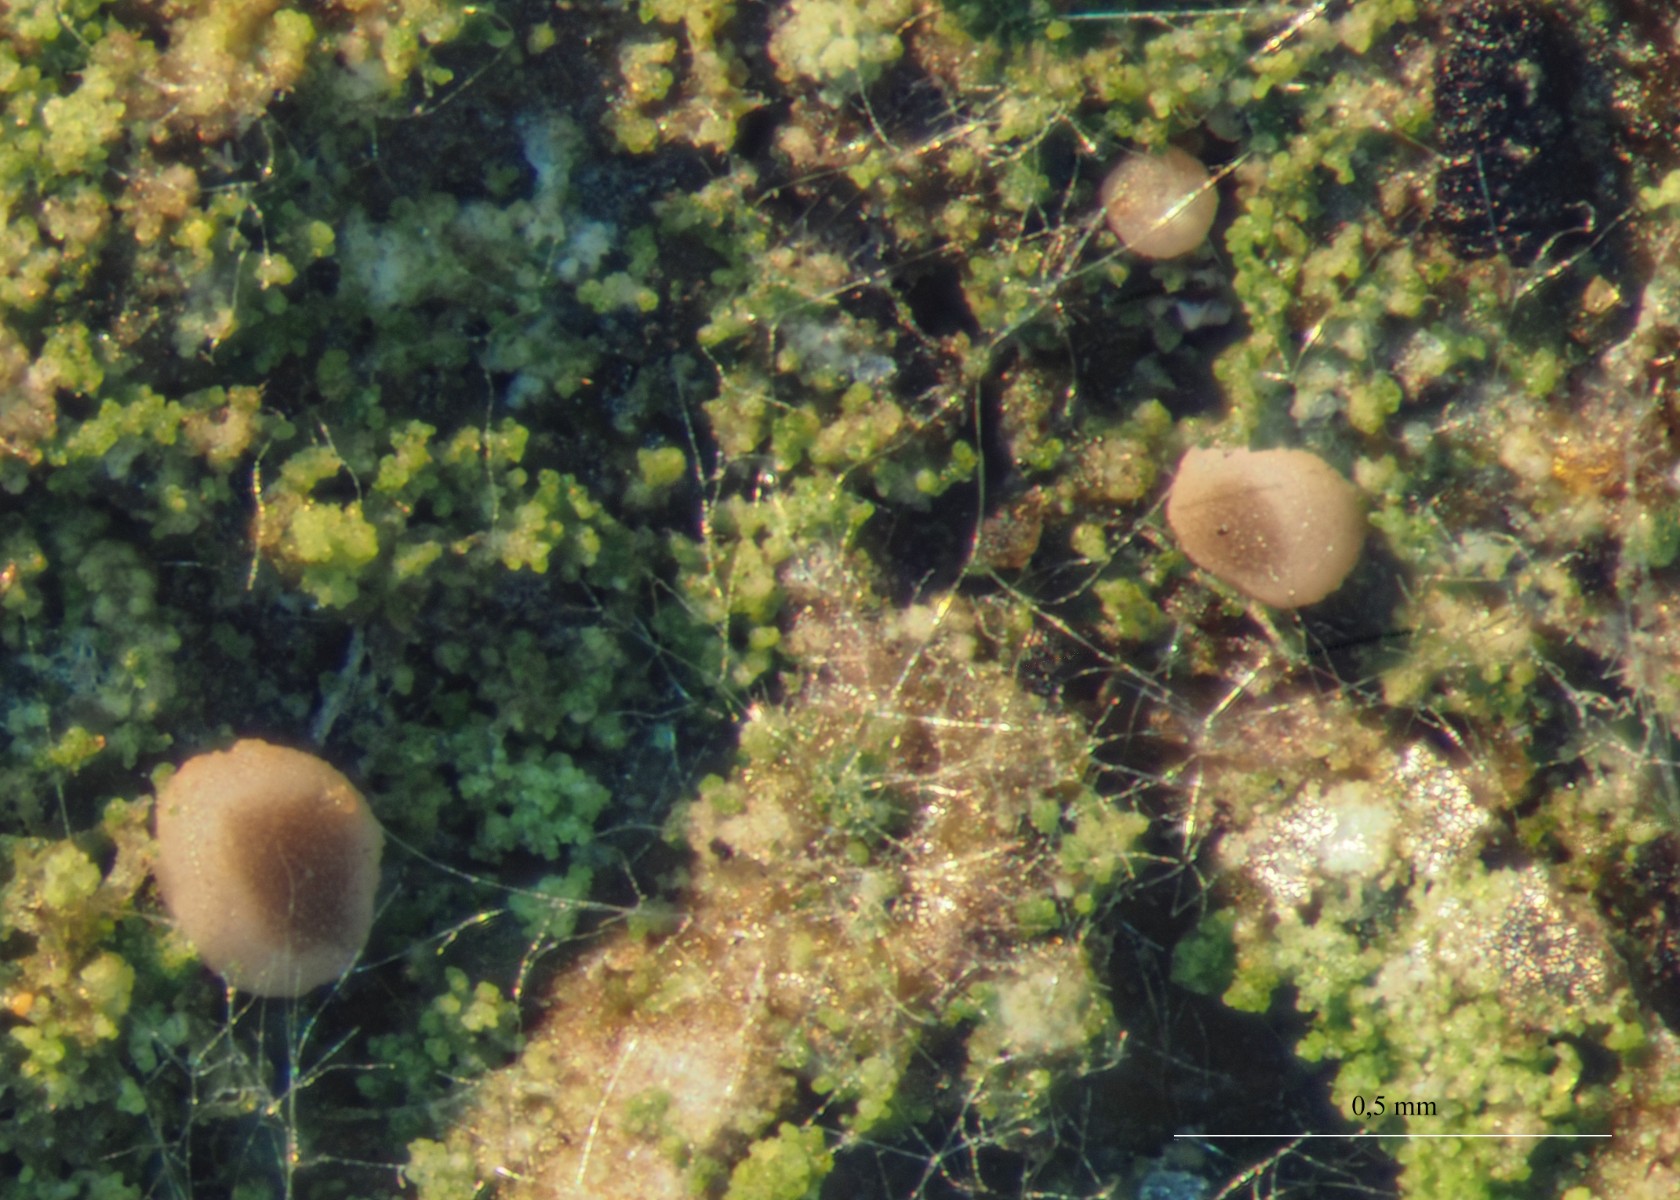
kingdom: Fungi
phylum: Ascomycota
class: Lecanoromycetes
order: Lecanorales
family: Ramalinaceae
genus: Bacidina
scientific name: Bacidina chloroticula
